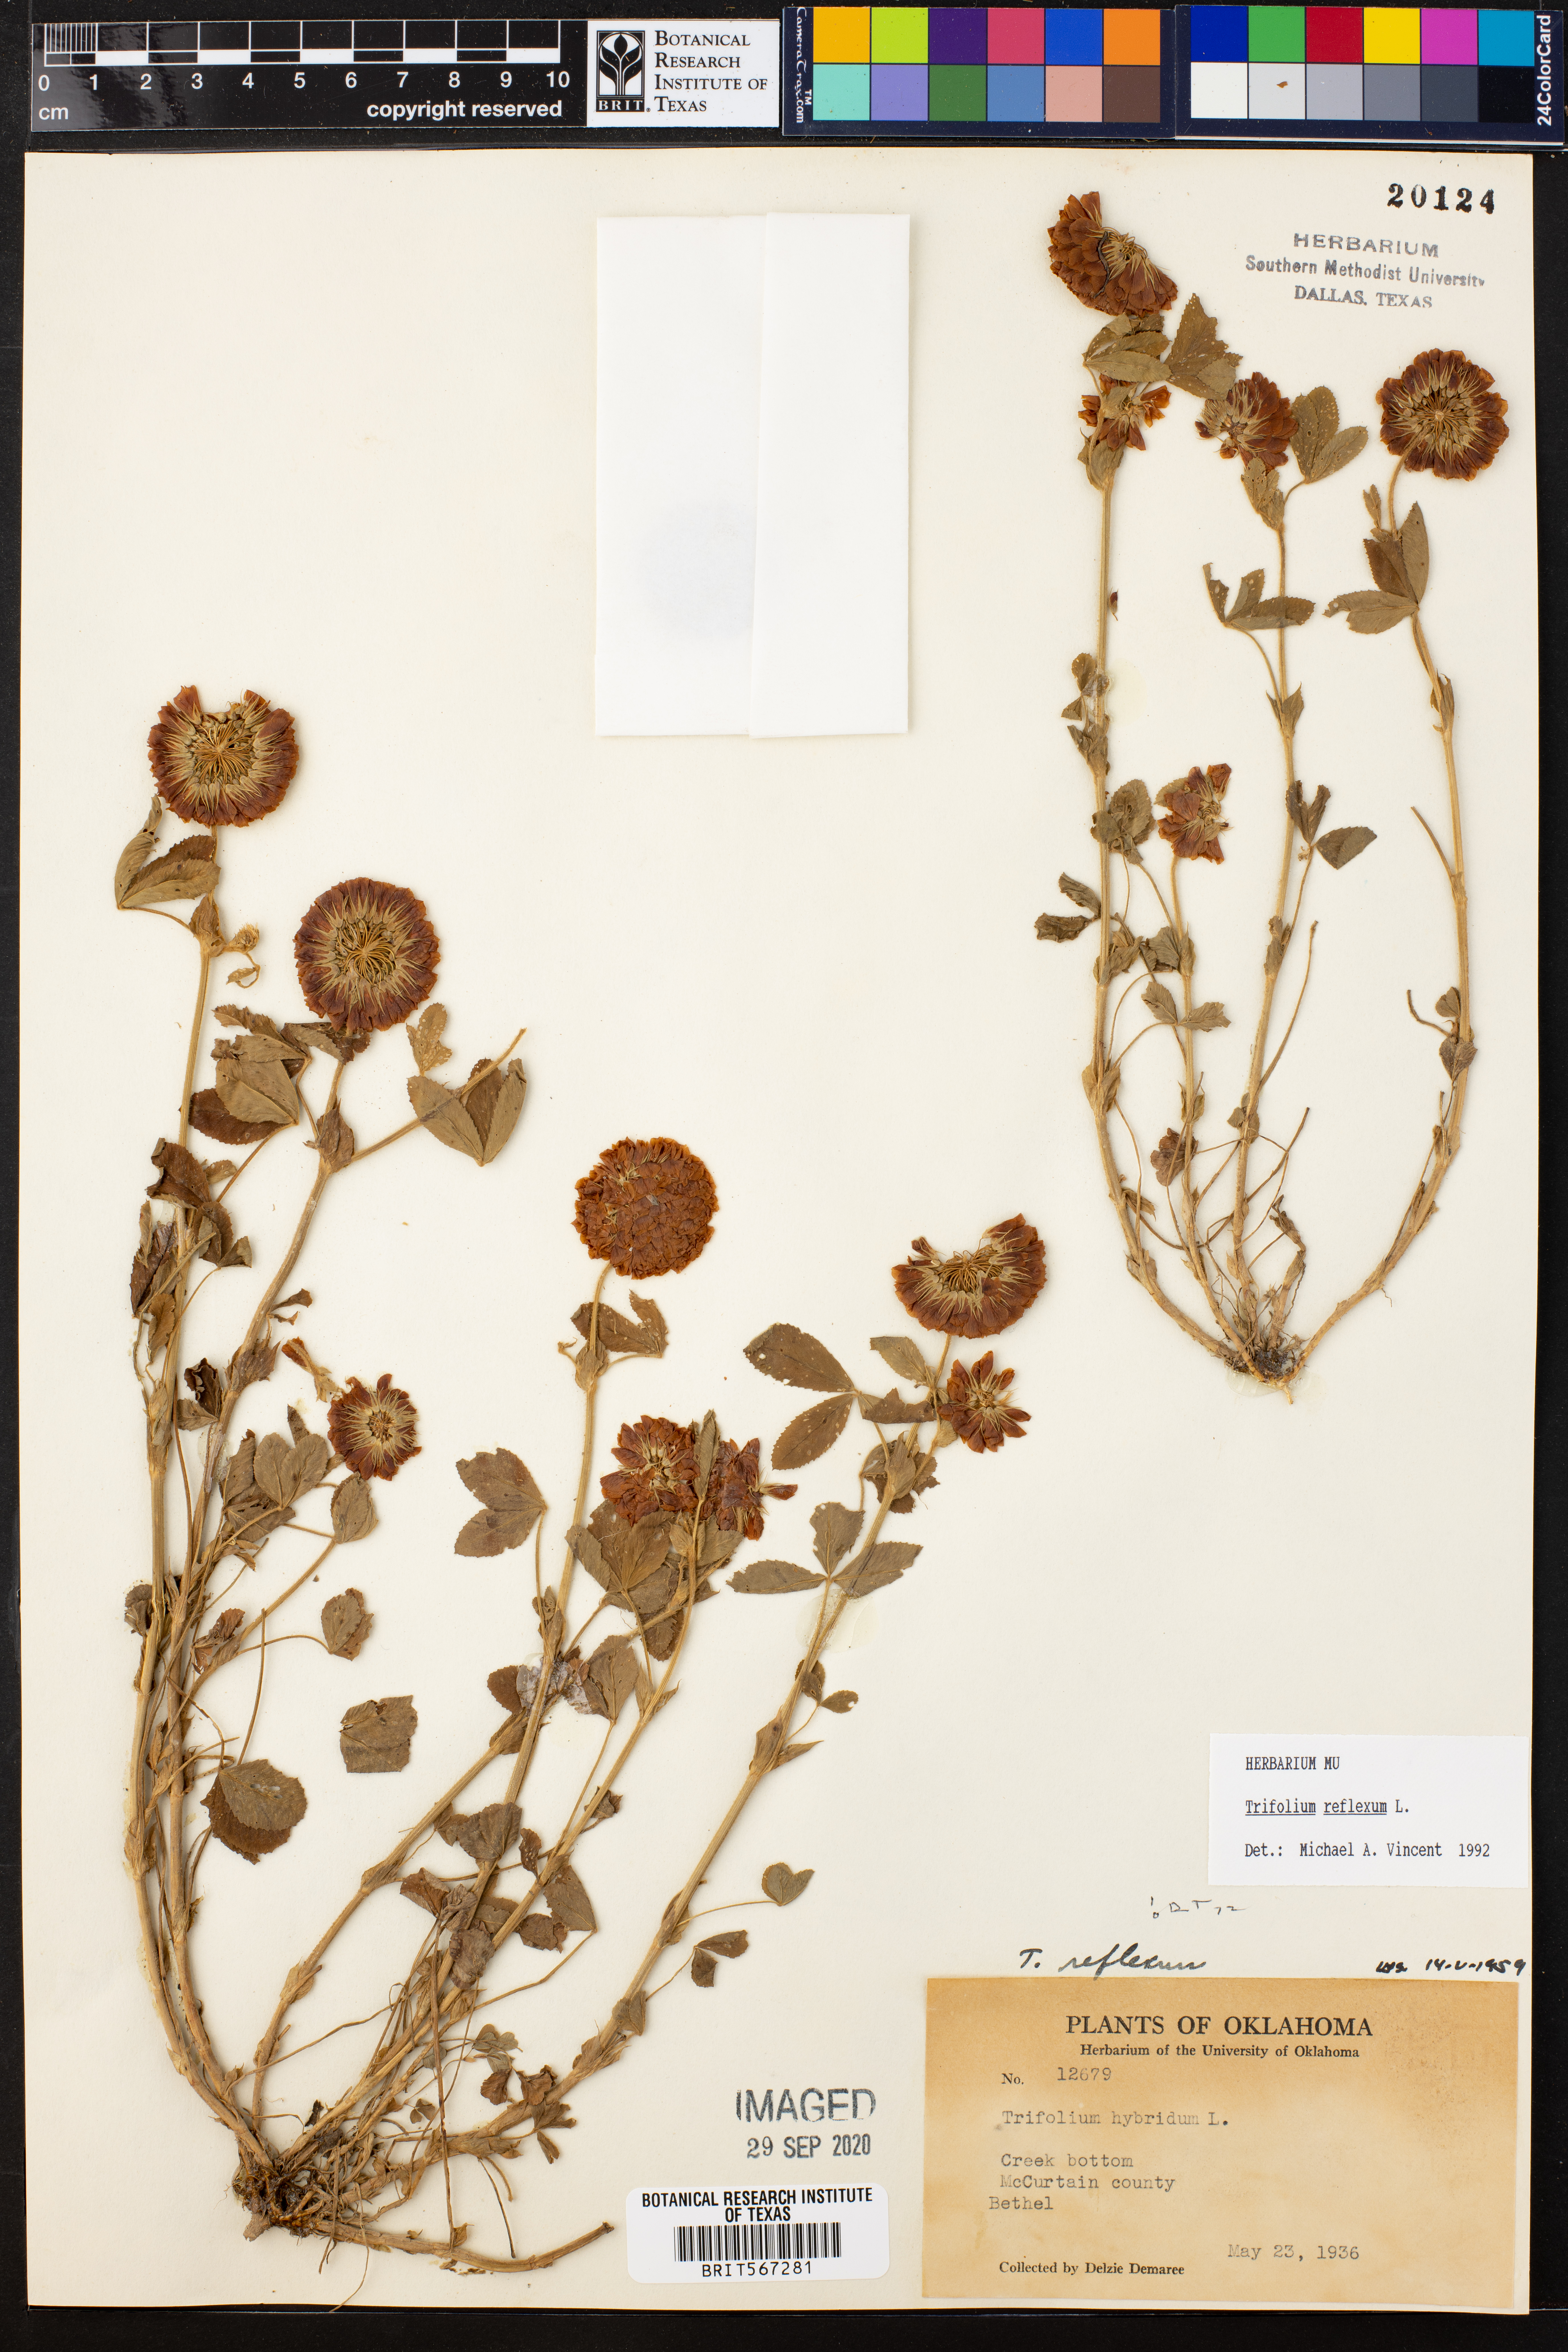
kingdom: Plantae
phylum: Tracheophyta
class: Magnoliopsida
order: Fabales
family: Fabaceae
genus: Trifolium
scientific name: Trifolium reflexum
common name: Buffalo clover
